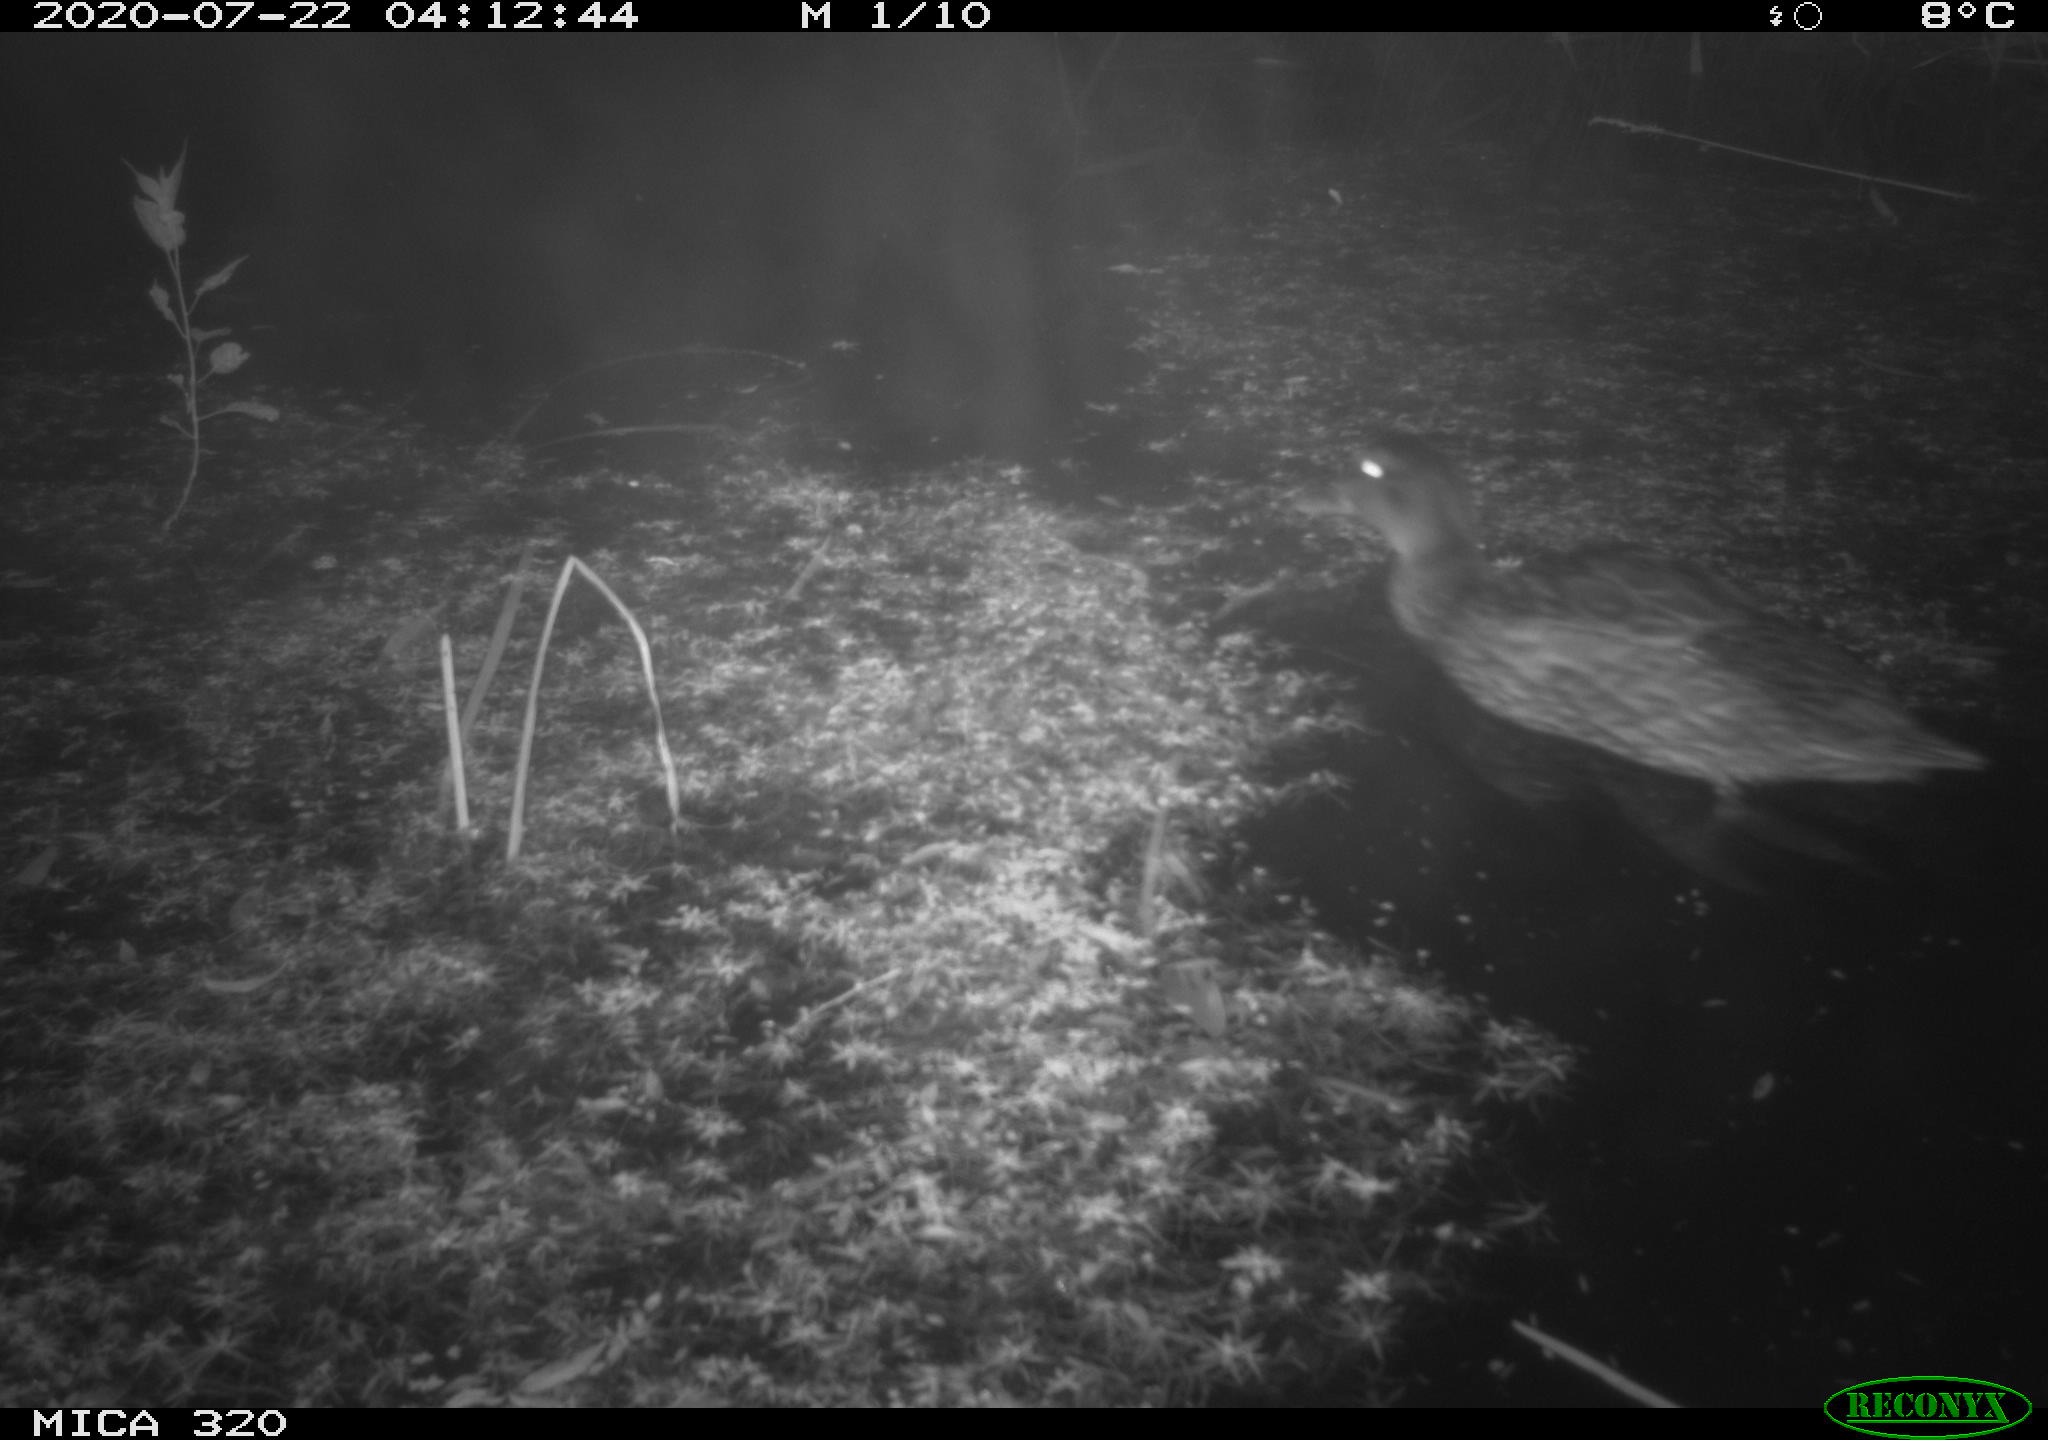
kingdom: Animalia
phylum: Chordata
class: Aves
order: Anseriformes
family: Anatidae
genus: Anas
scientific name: Anas platyrhynchos
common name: Mallard
